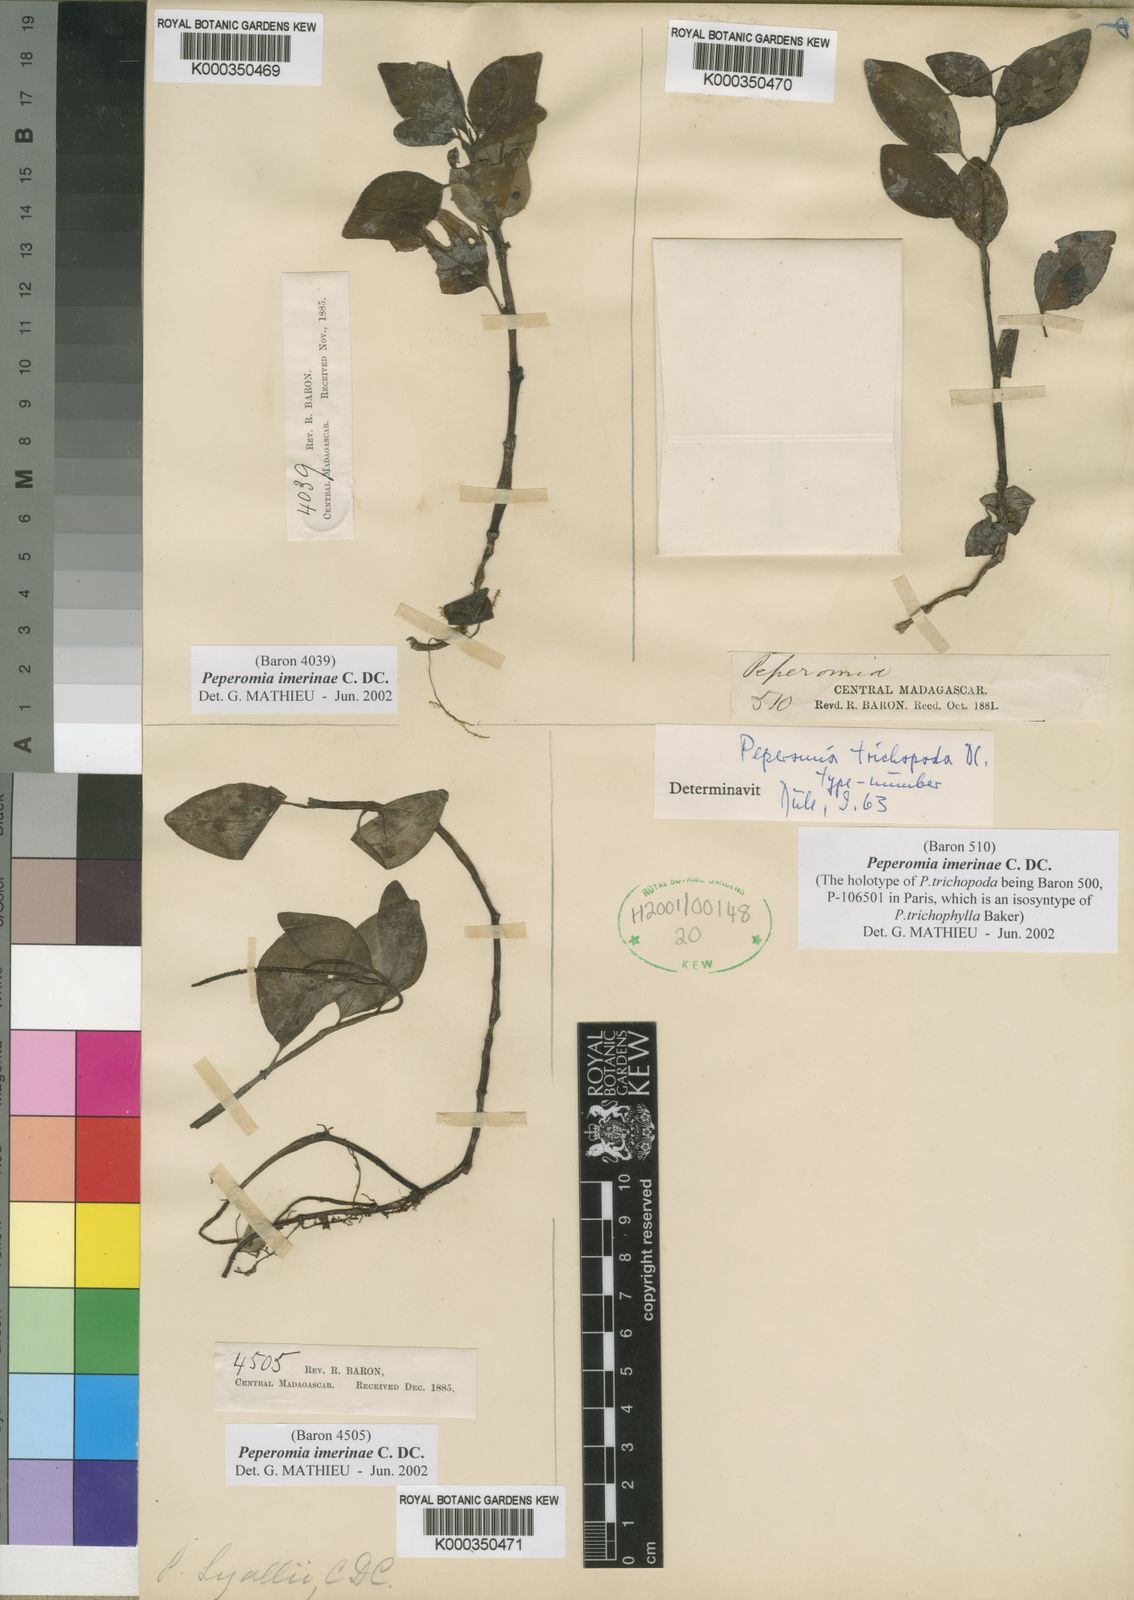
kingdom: Plantae
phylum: Tracheophyta
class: Magnoliopsida
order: Piperales
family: Piperaceae
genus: Peperomia
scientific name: Peperomia imerinae
